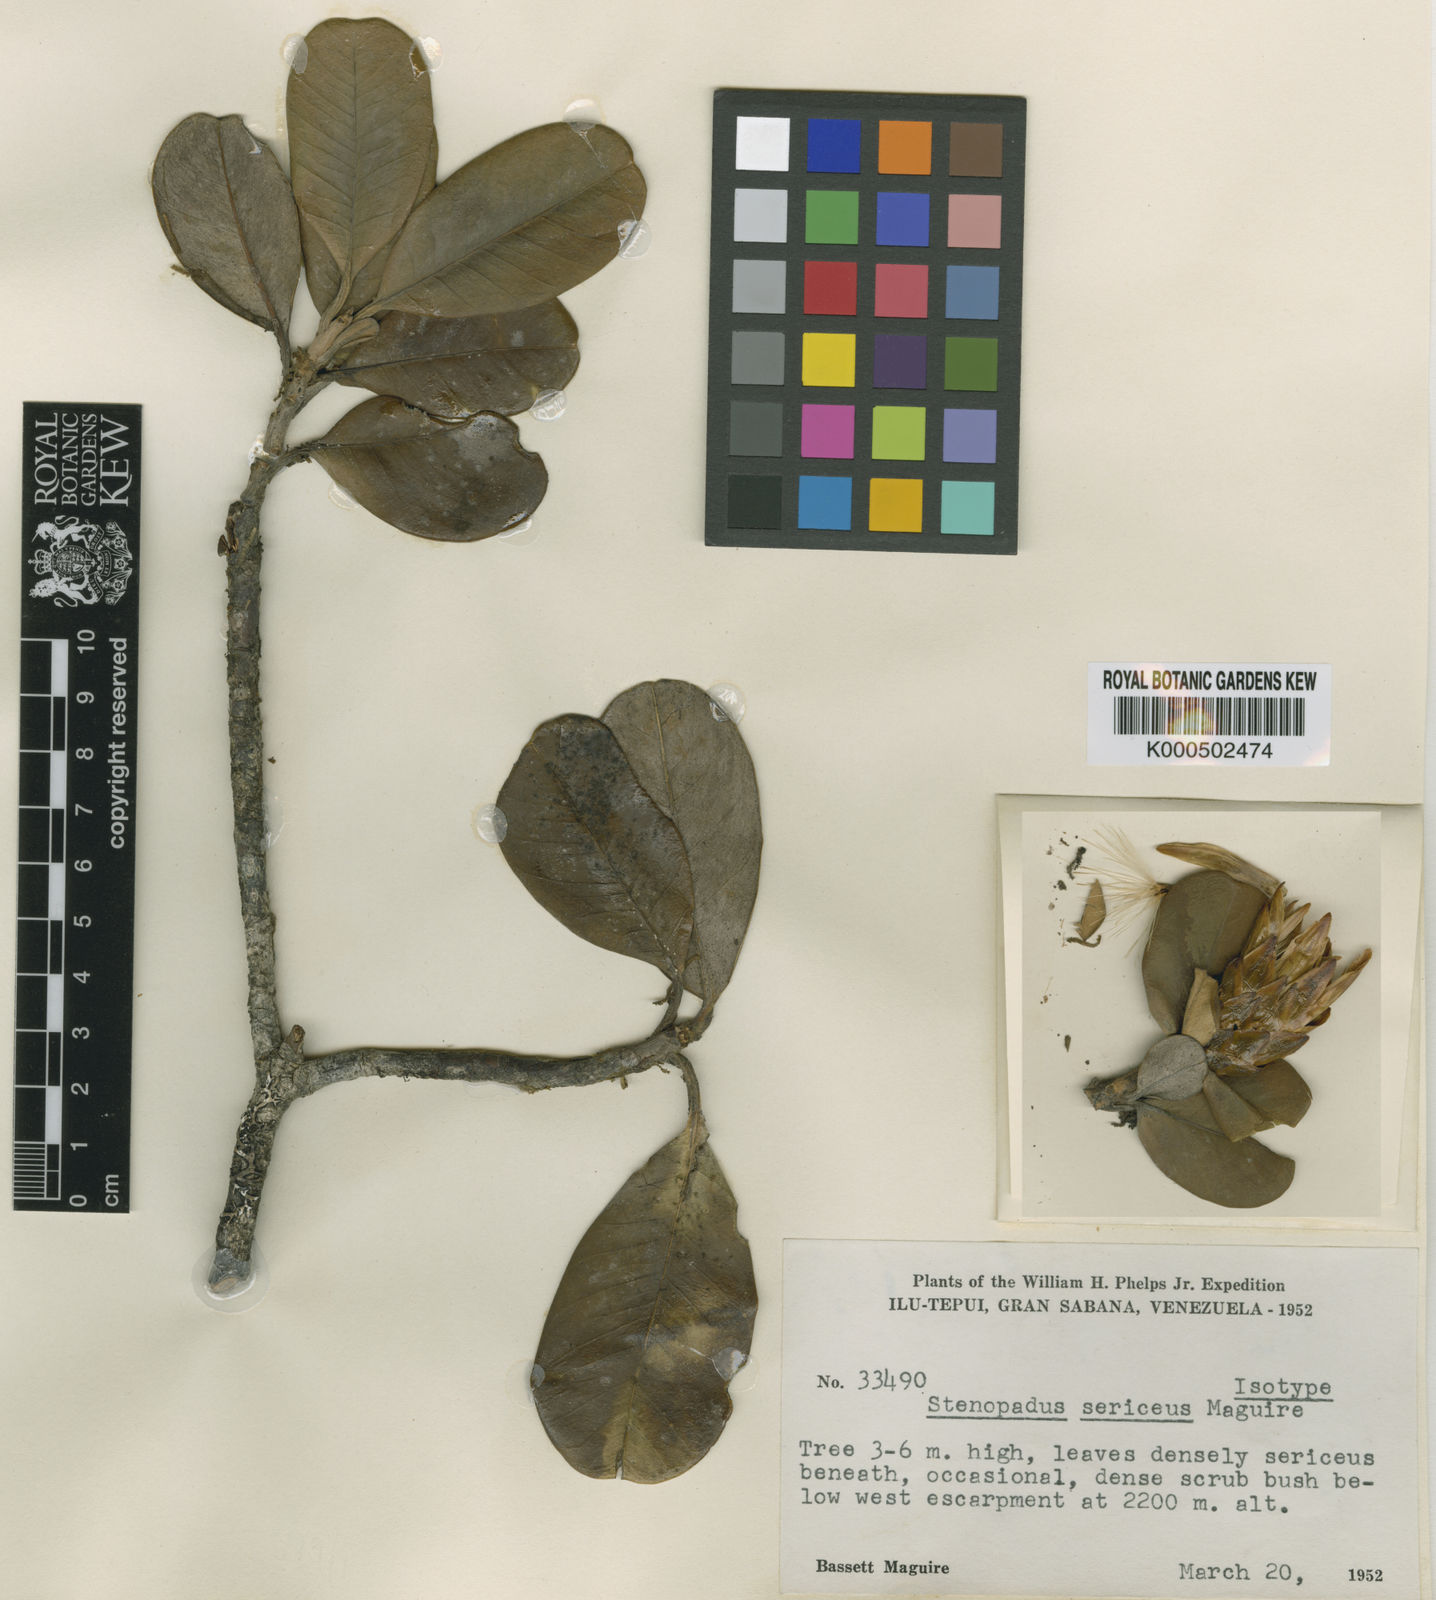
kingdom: Plantae
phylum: Tracheophyta
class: Magnoliopsida
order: Asterales
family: Asteraceae
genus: Stenopadus
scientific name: Stenopadus sericeus
